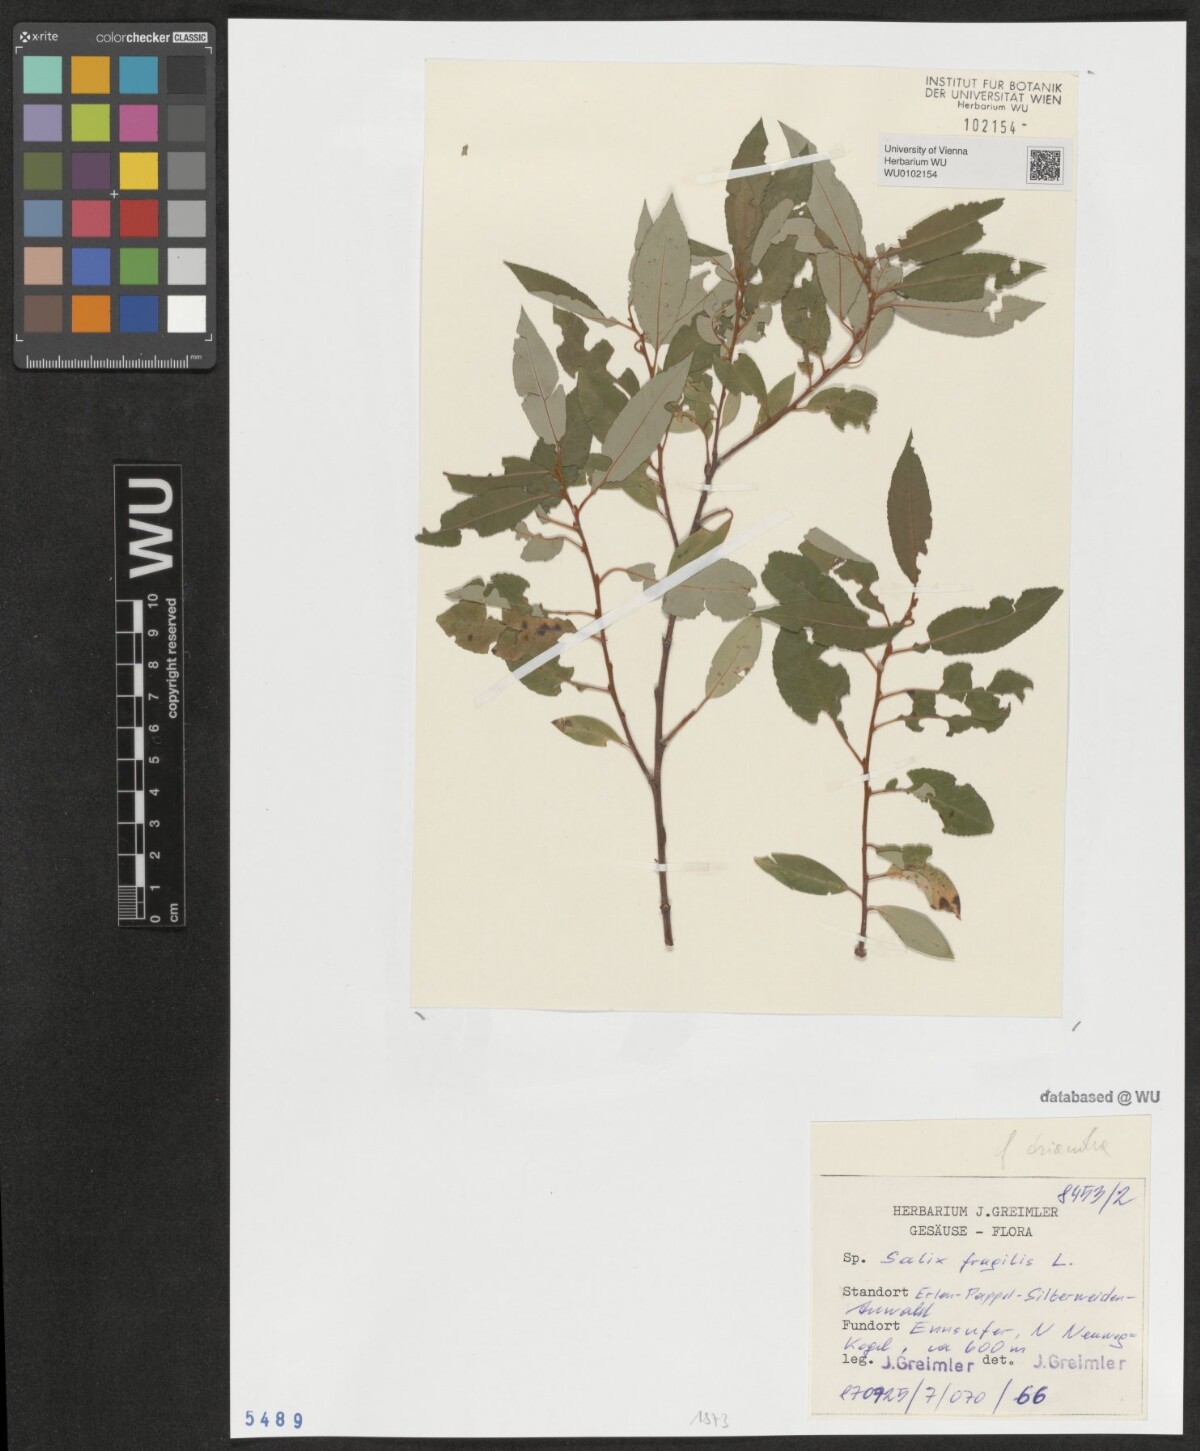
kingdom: Plantae
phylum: Tracheophyta
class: Magnoliopsida
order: Malpighiales
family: Salicaceae
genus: Salix
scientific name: Salix fragilis
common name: Crack willow
